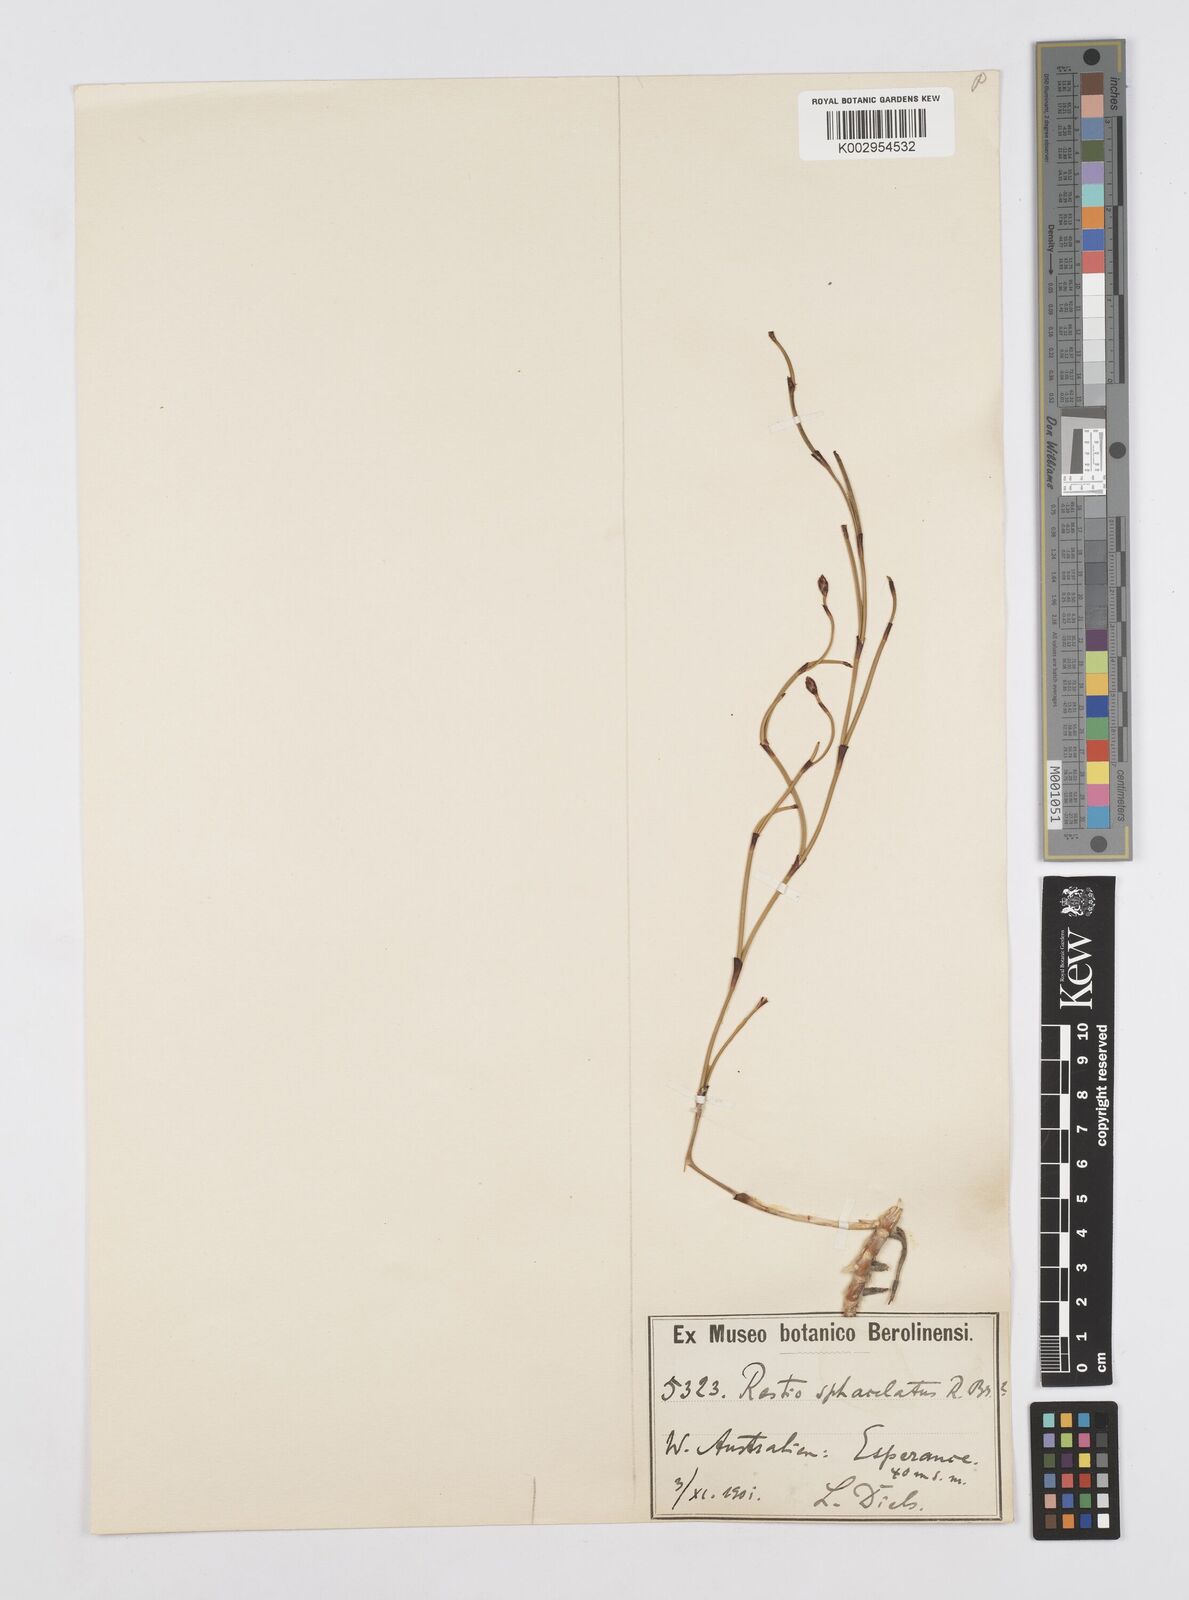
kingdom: Plantae
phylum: Tracheophyta
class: Liliopsida
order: Poales
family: Restionaceae
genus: Chordifex
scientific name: Chordifex sphacelatus
